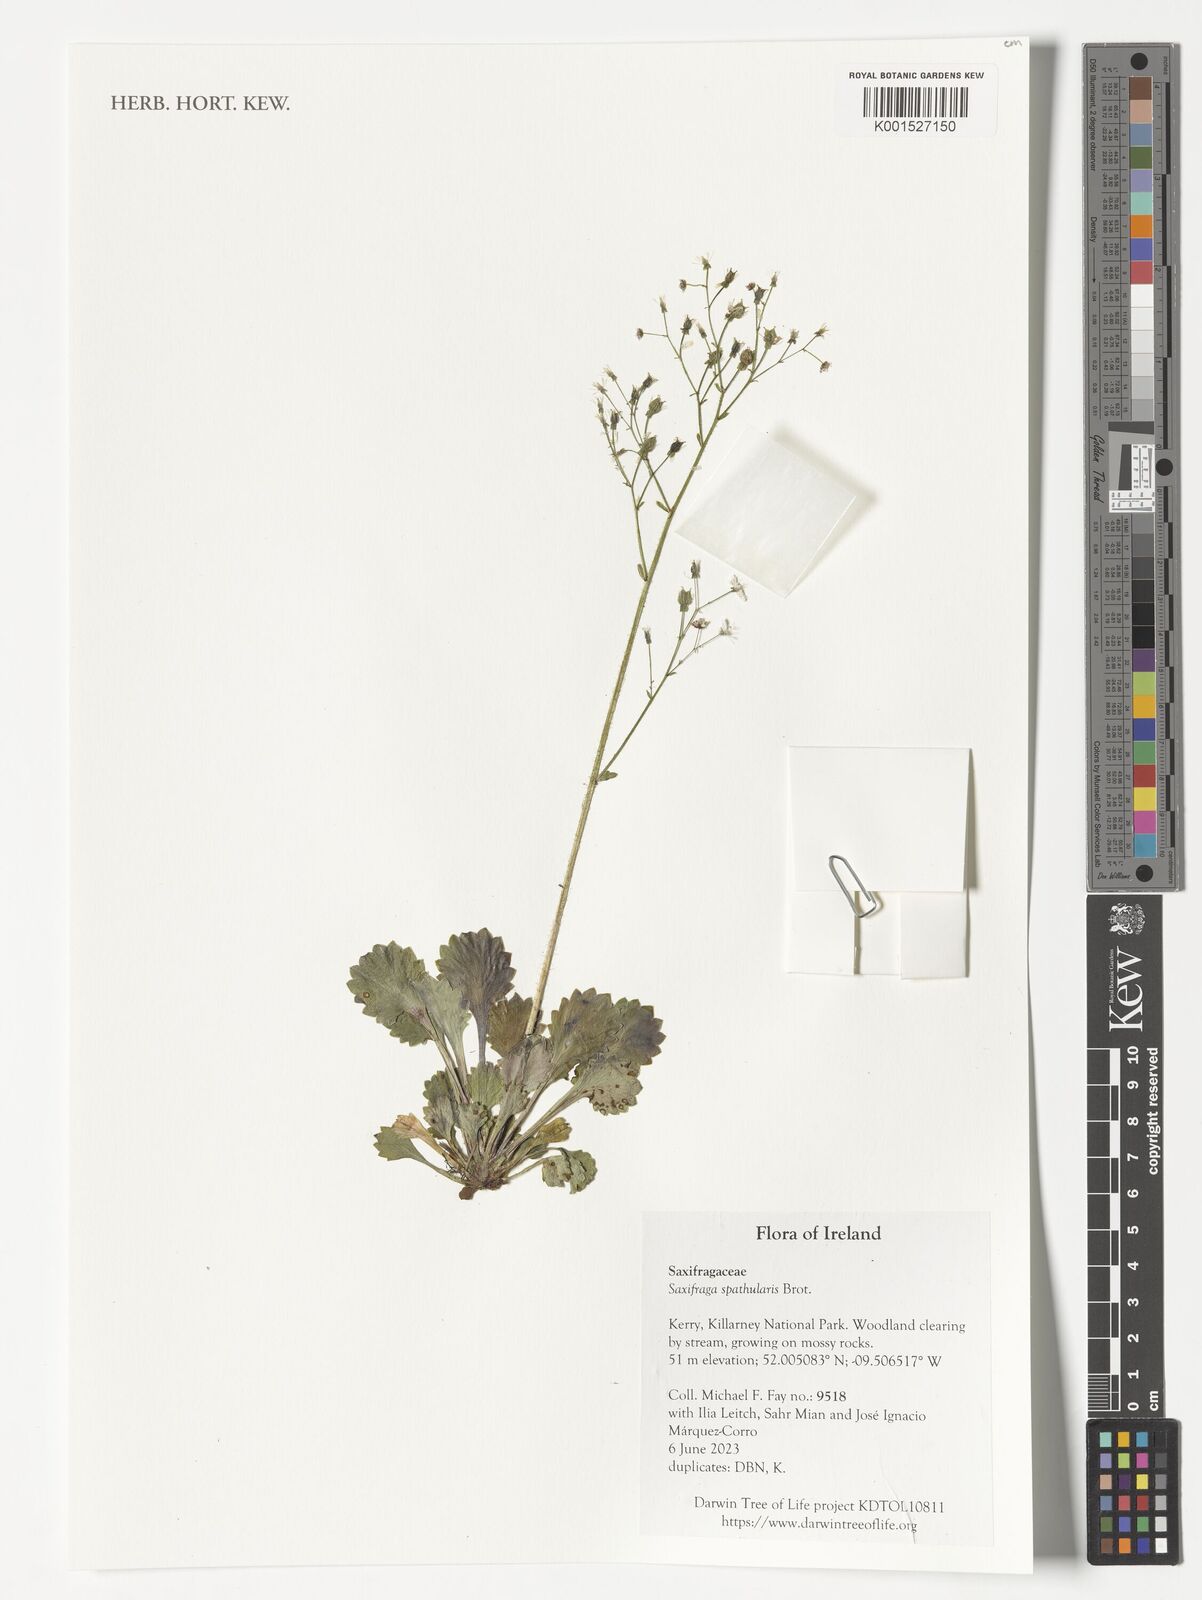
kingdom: Plantae
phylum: Tracheophyta
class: Magnoliopsida
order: Saxifragales
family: Saxifragaceae
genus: Saxifraga
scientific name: Saxifraga spathularis
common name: St patrick's-cabbage
